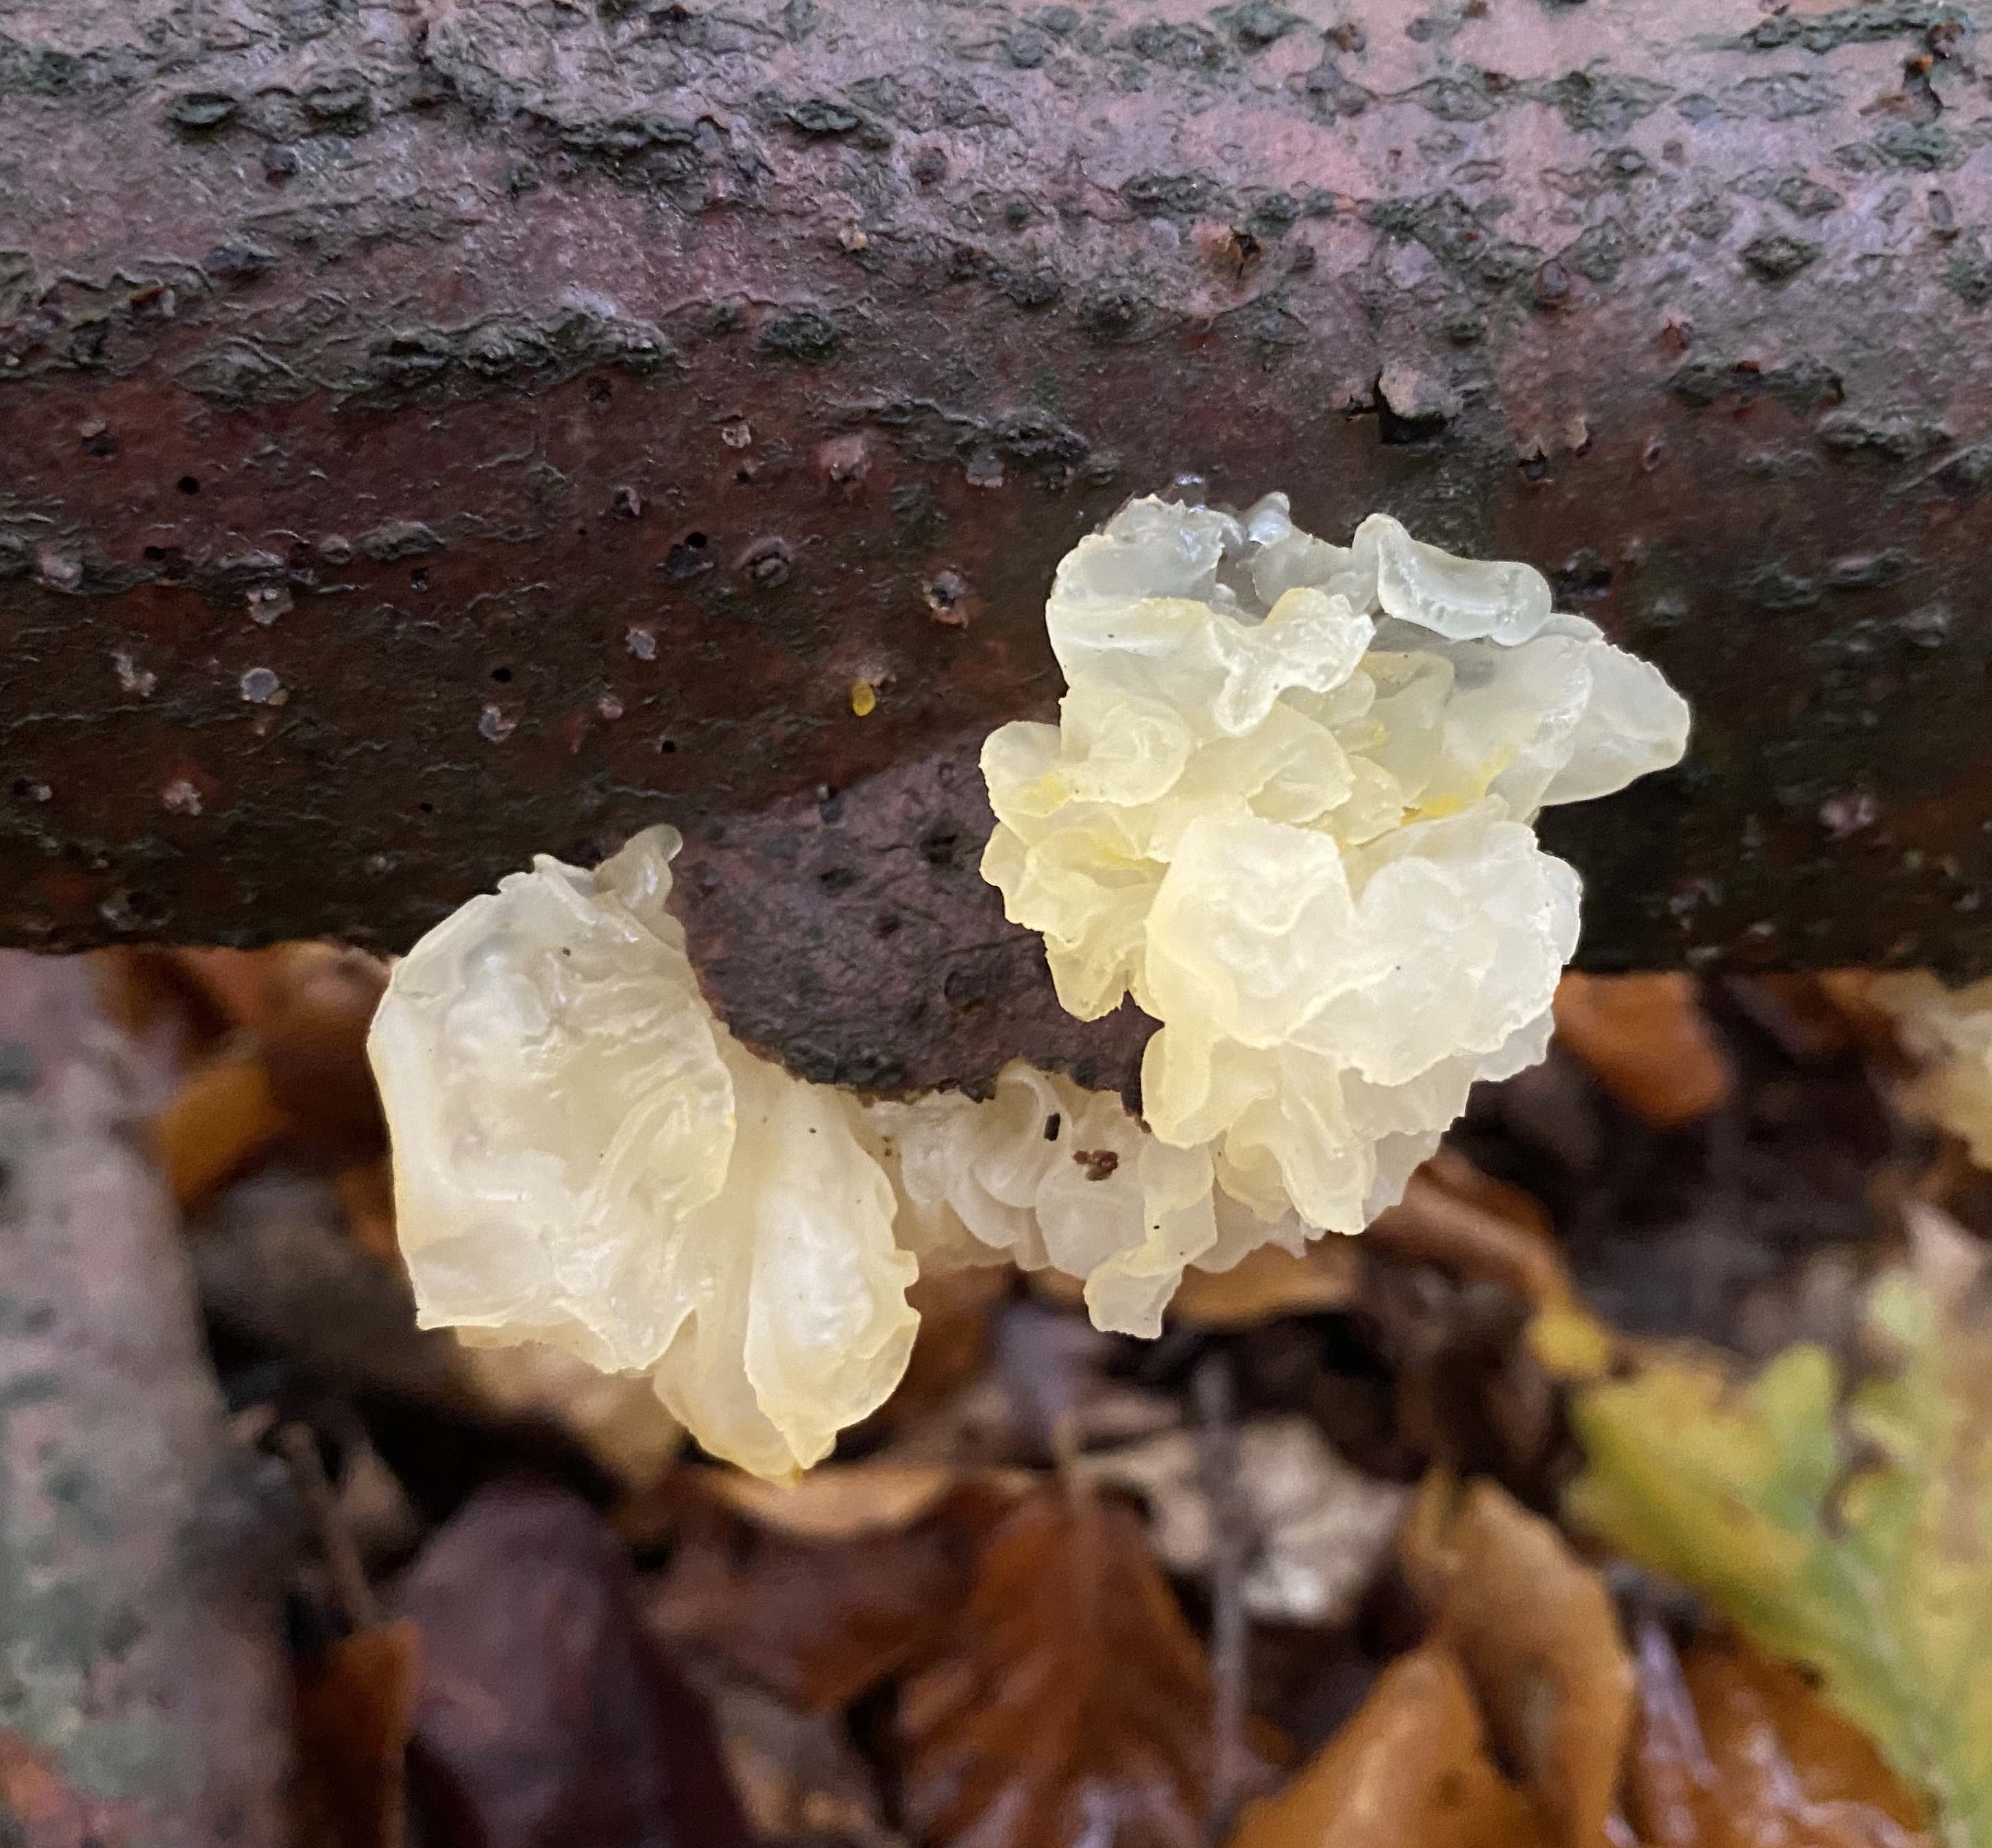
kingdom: Fungi
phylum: Basidiomycota
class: Tremellomycetes
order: Tremellales
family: Tremellaceae
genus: Tremella
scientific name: Tremella mesenterica
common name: gul bævresvamp
